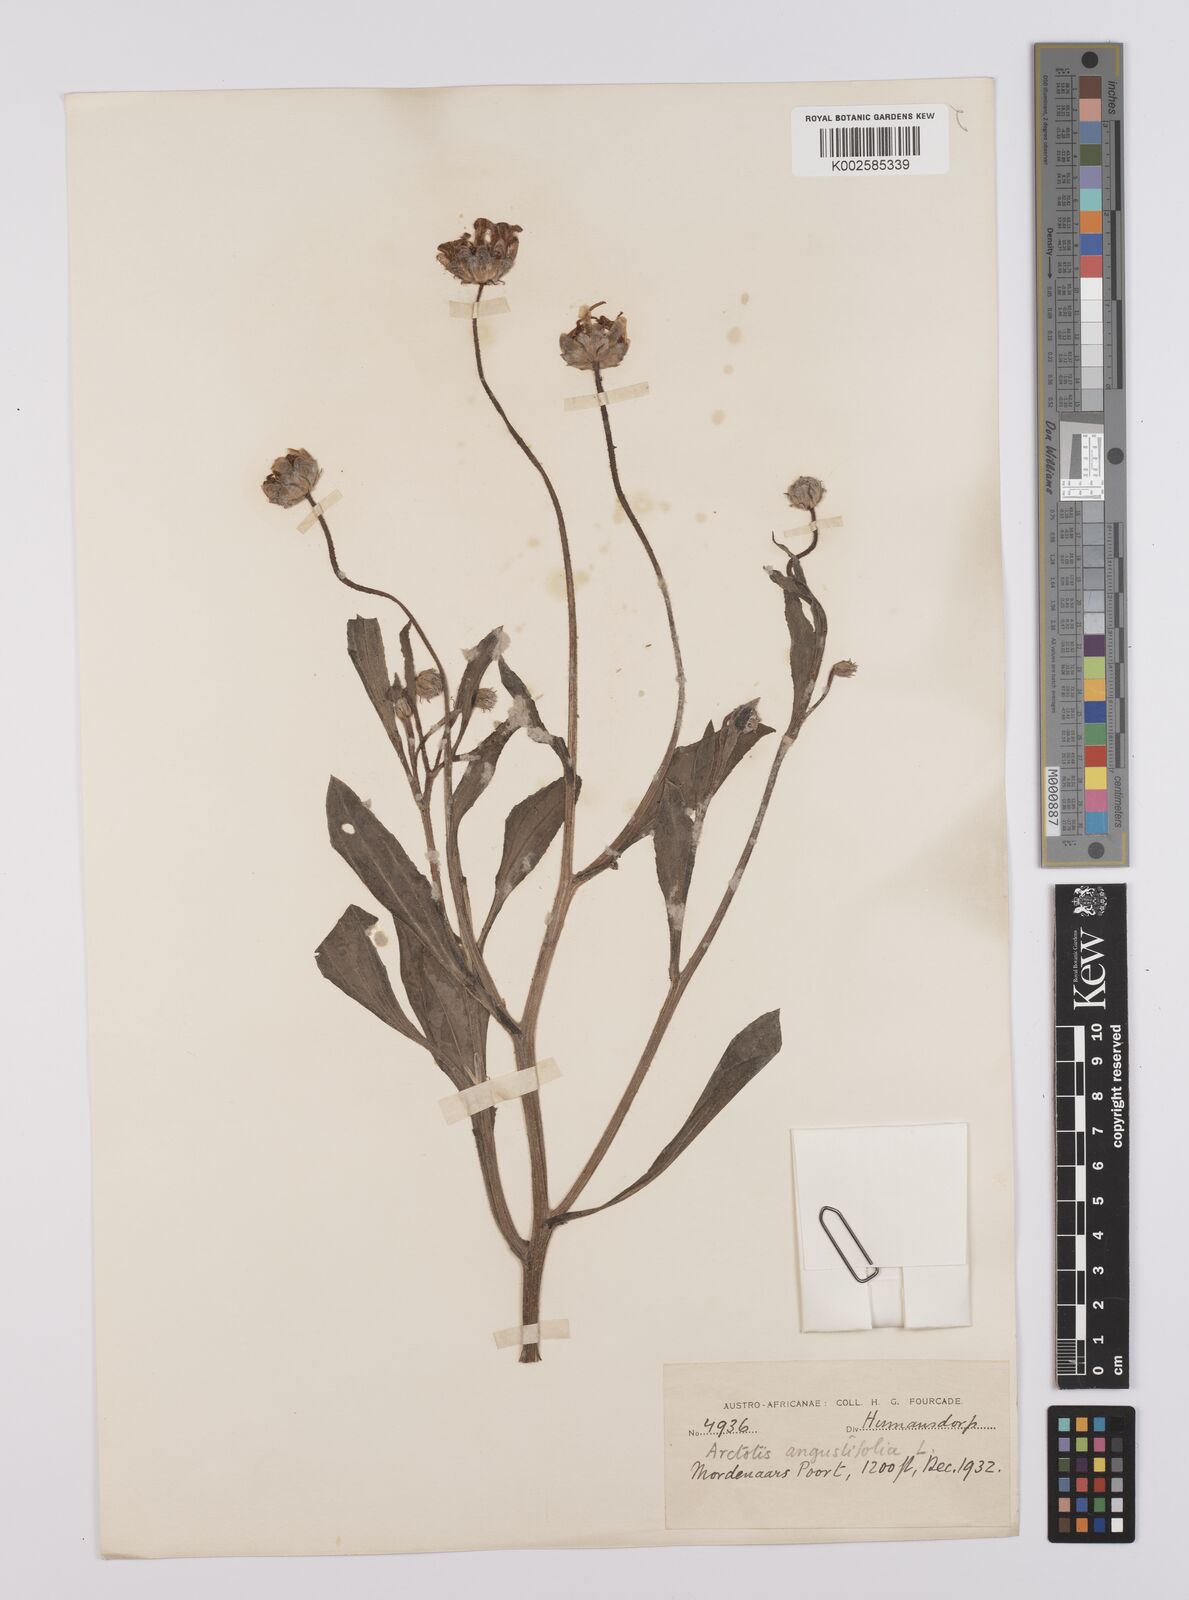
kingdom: Plantae
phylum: Tracheophyta
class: Magnoliopsida
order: Asterales
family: Asteraceae
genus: Arctotis
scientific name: Arctotis rosea
